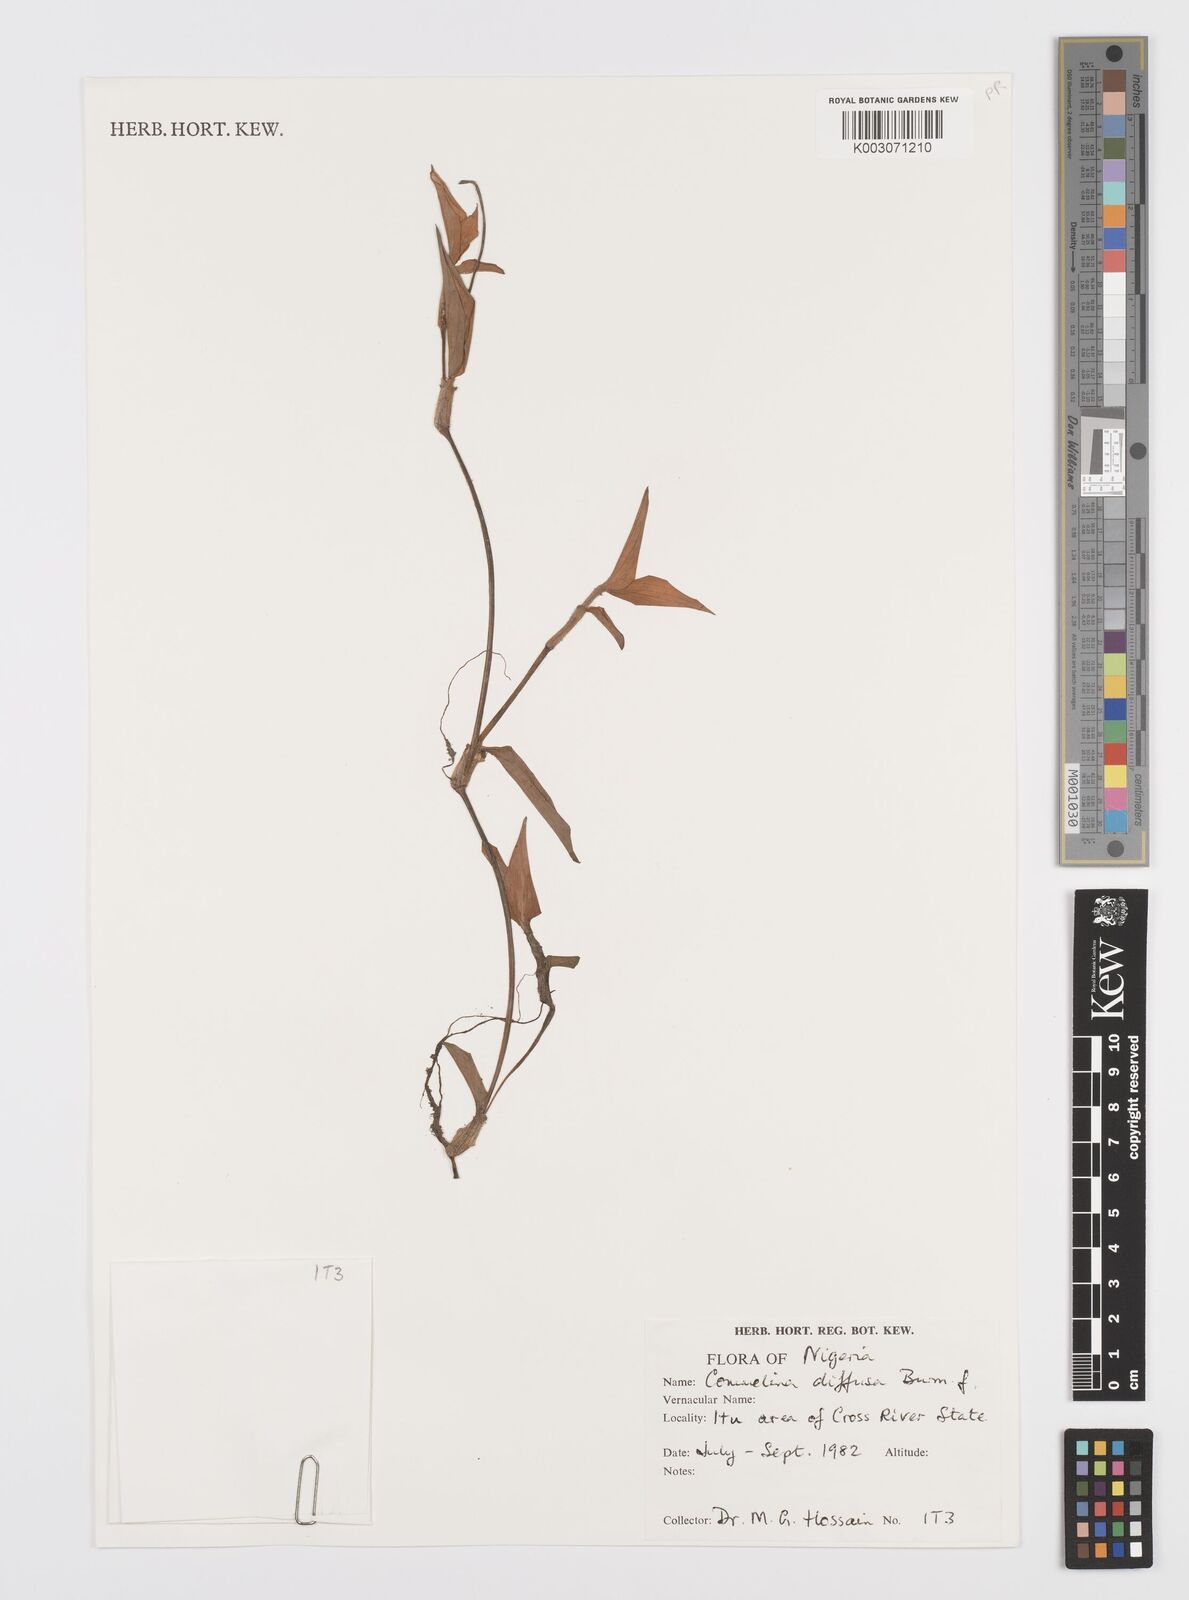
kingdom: Plantae
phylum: Tracheophyta
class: Liliopsida
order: Commelinales
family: Commelinaceae
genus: Commelina
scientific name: Commelina diffusa
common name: Climbing dayflower
